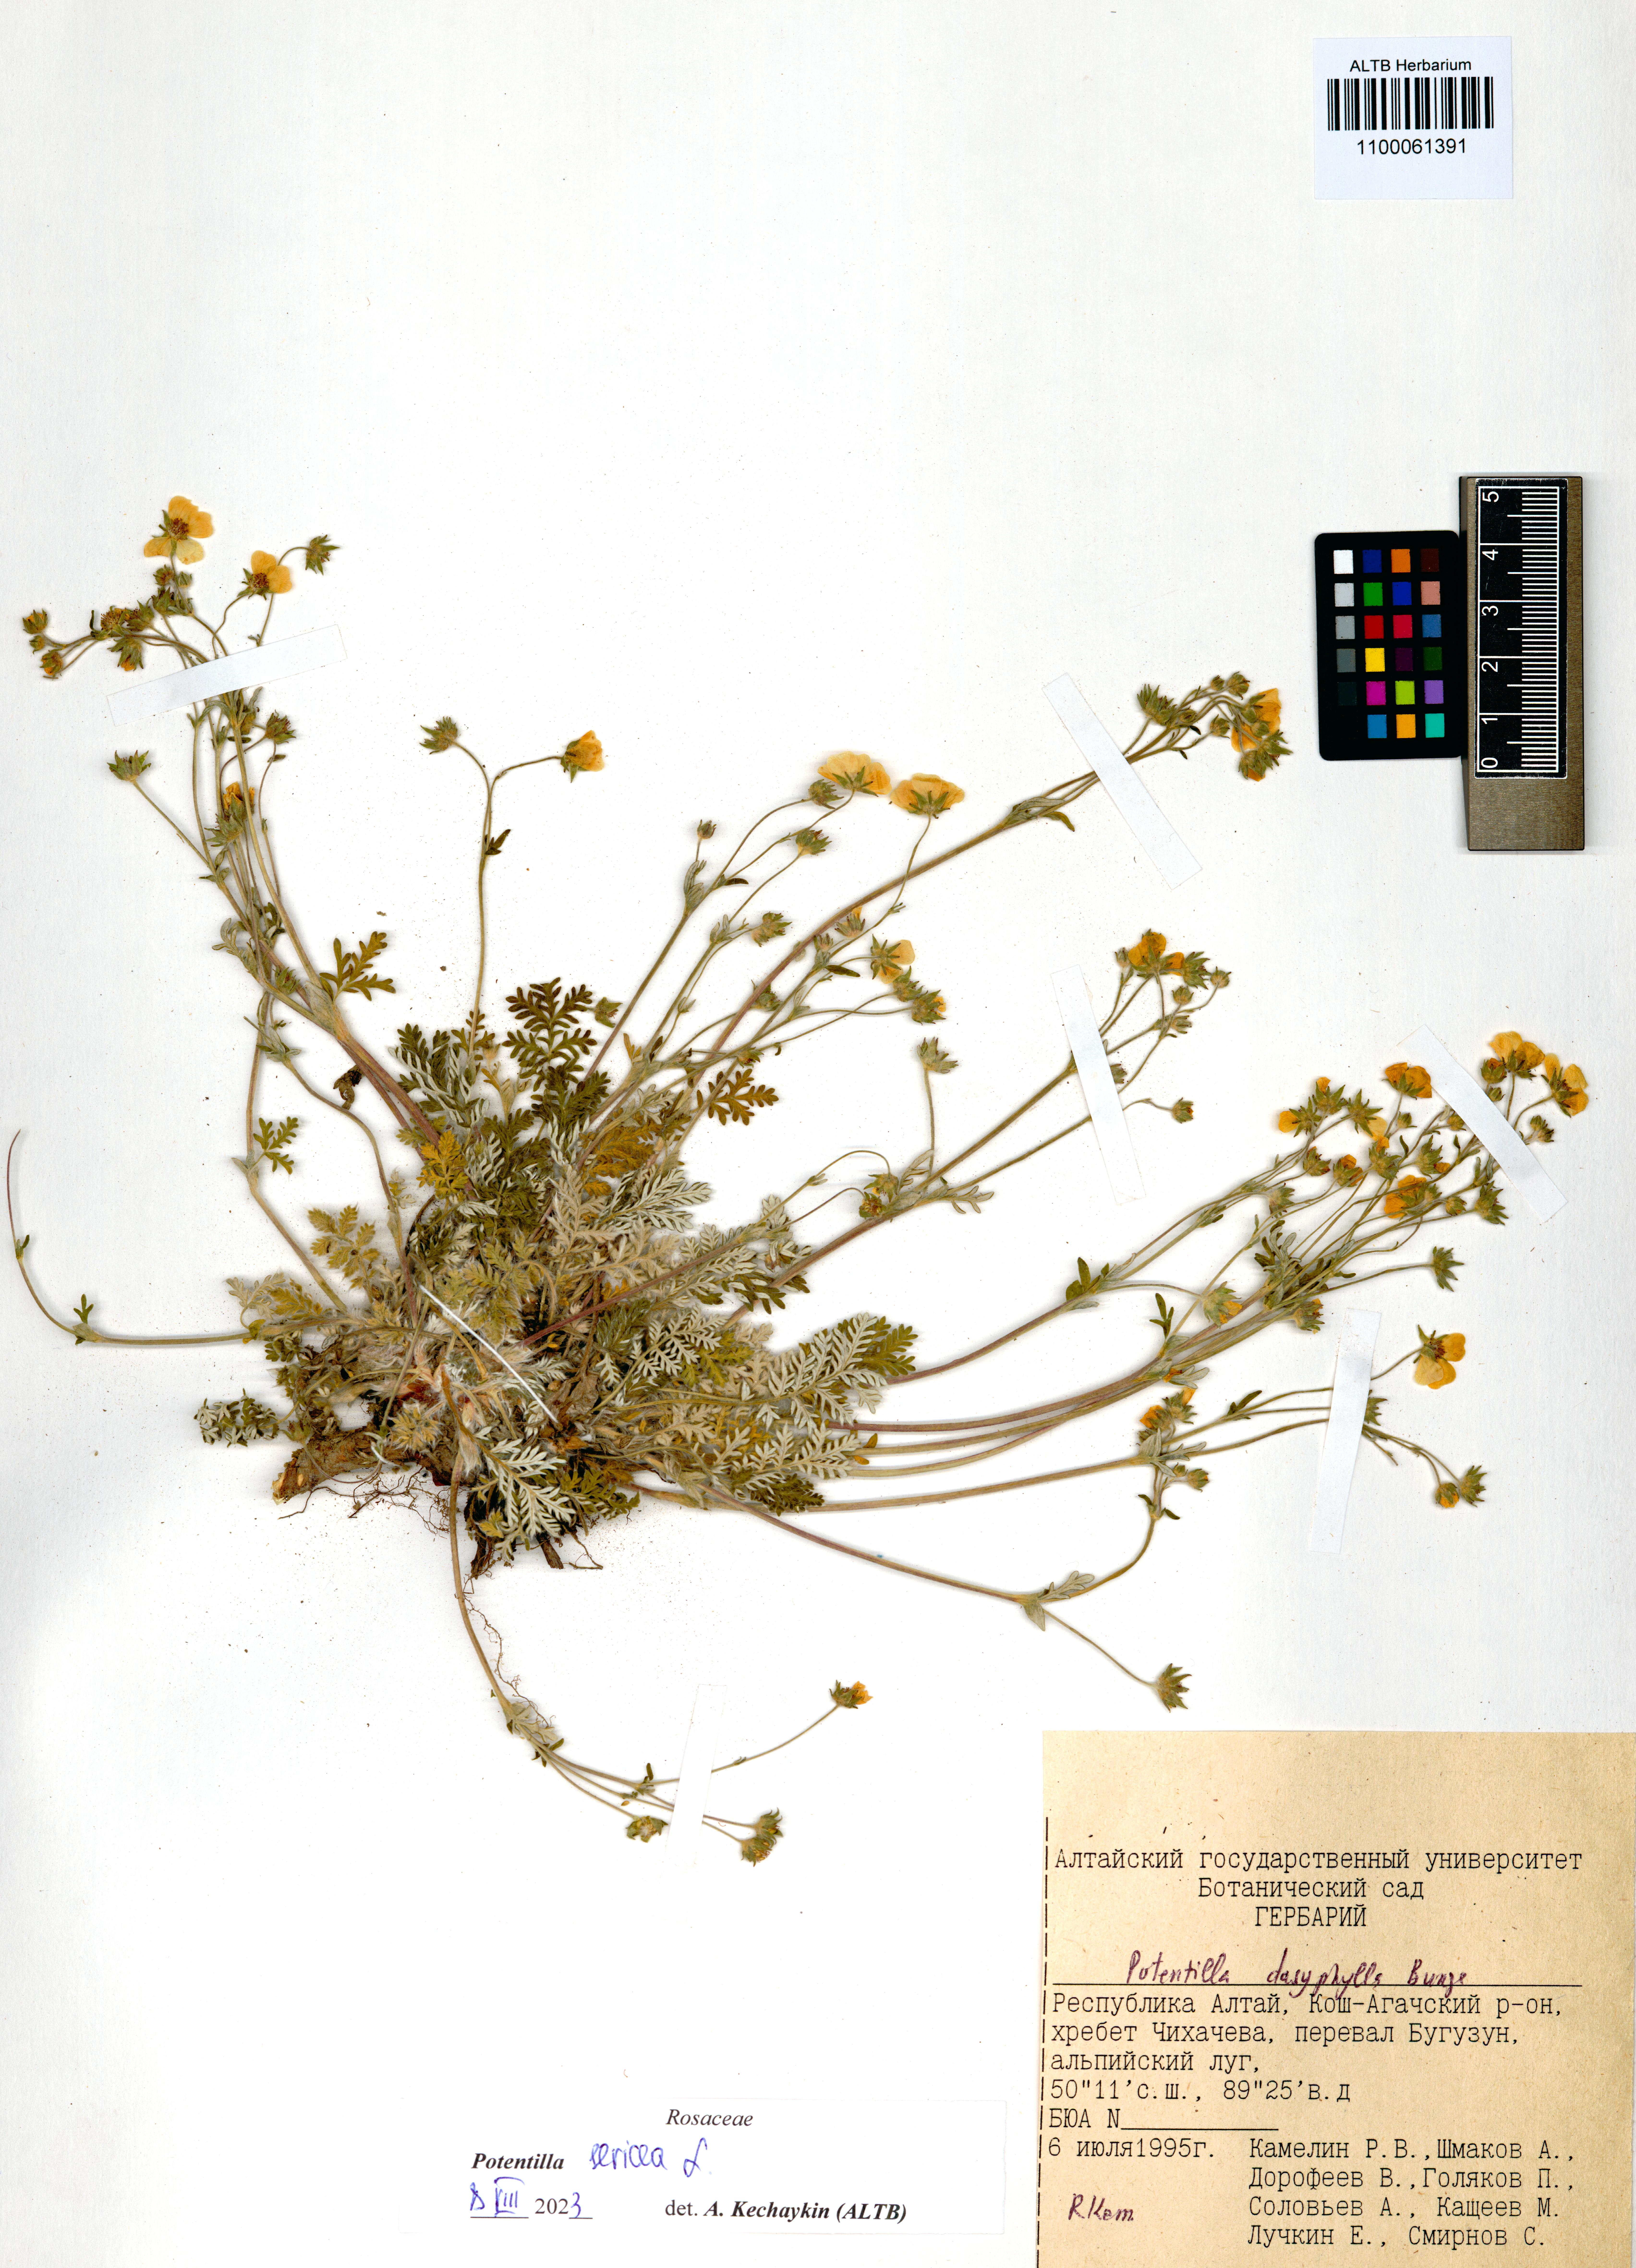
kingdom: Plantae
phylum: Tracheophyta
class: Magnoliopsida
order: Rosales
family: Rosaceae
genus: Potentilla
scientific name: Potentilla sericea
